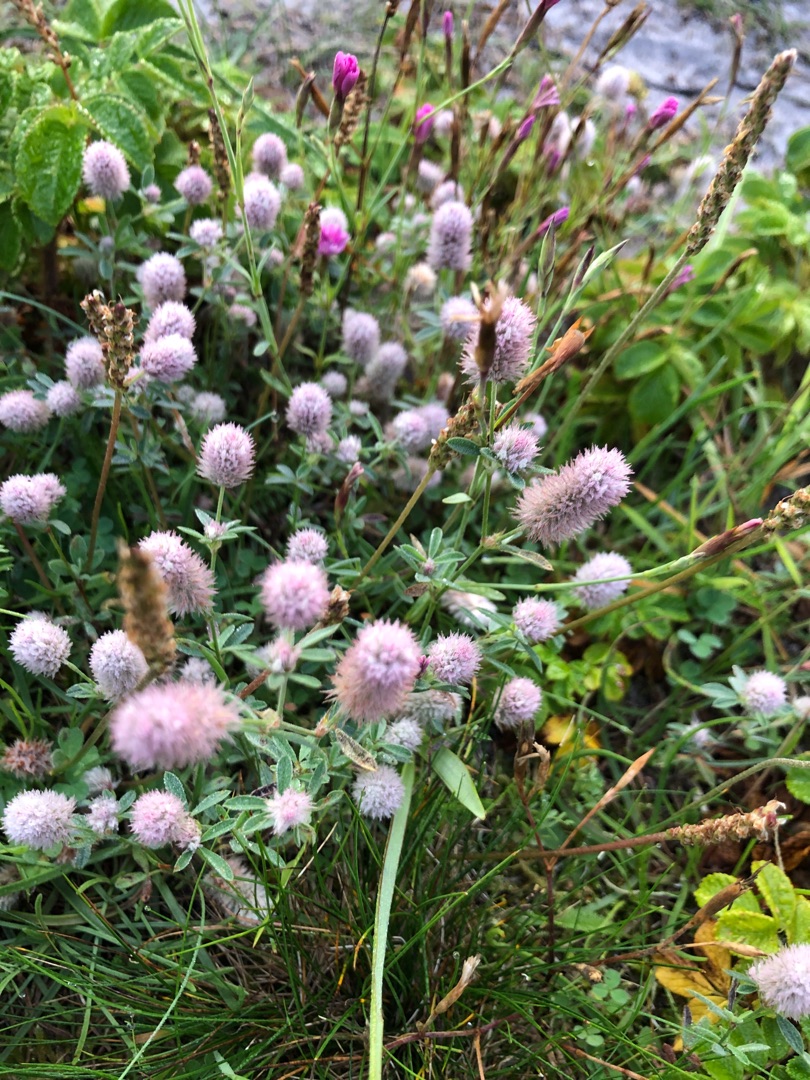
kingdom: Plantae
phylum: Tracheophyta
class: Magnoliopsida
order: Fabales
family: Fabaceae
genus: Trifolium
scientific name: Trifolium arvense
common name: Hare-kløver
